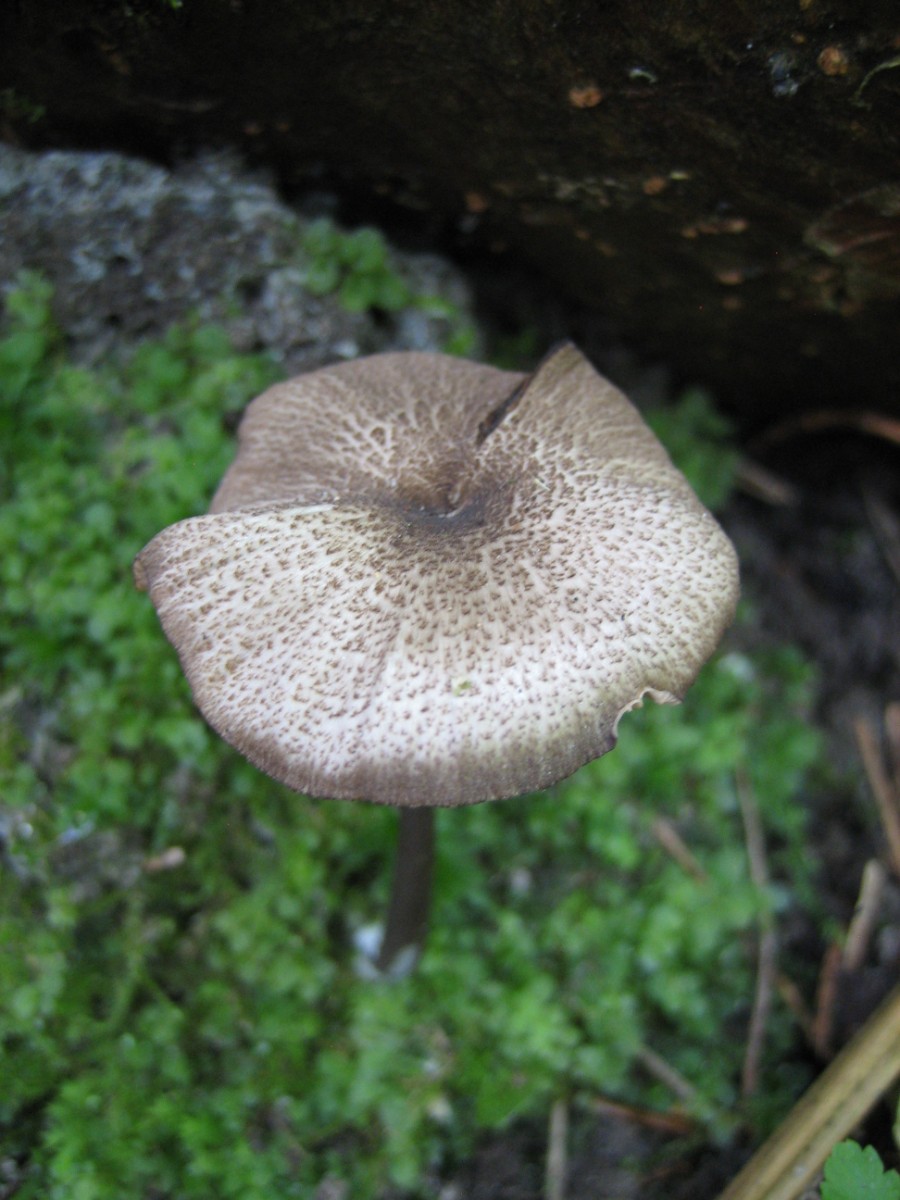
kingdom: Fungi
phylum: Basidiomycota
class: Agaricomycetes
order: Agaricales
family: Entolomataceae
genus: Entoloma
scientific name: Entoloma
